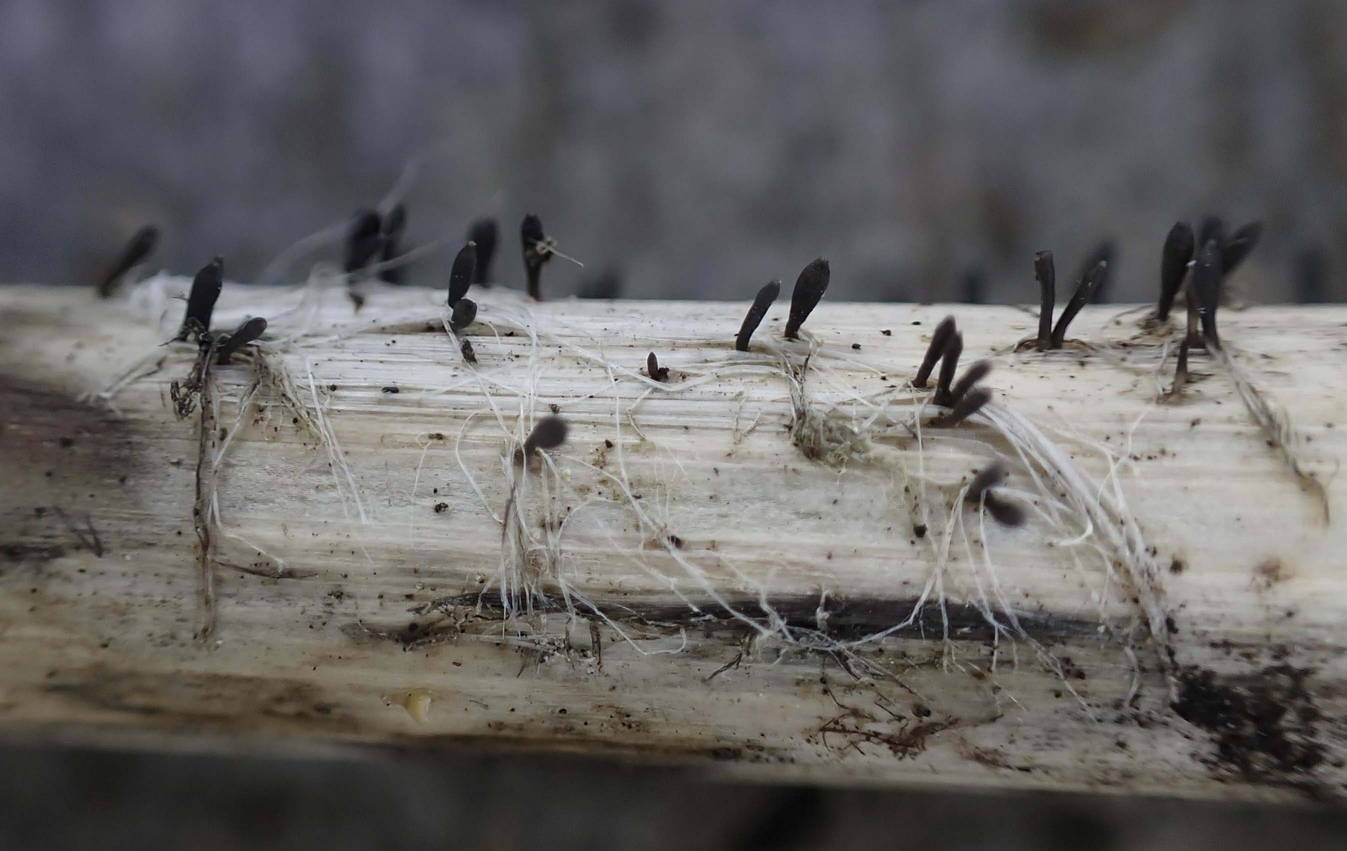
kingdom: Fungi
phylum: Ascomycota
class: Dothideomycetes
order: Acrospermales
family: Acrospermaceae
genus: Acrospermum
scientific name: Acrospermum compressum
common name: nælde-stængeltunge
